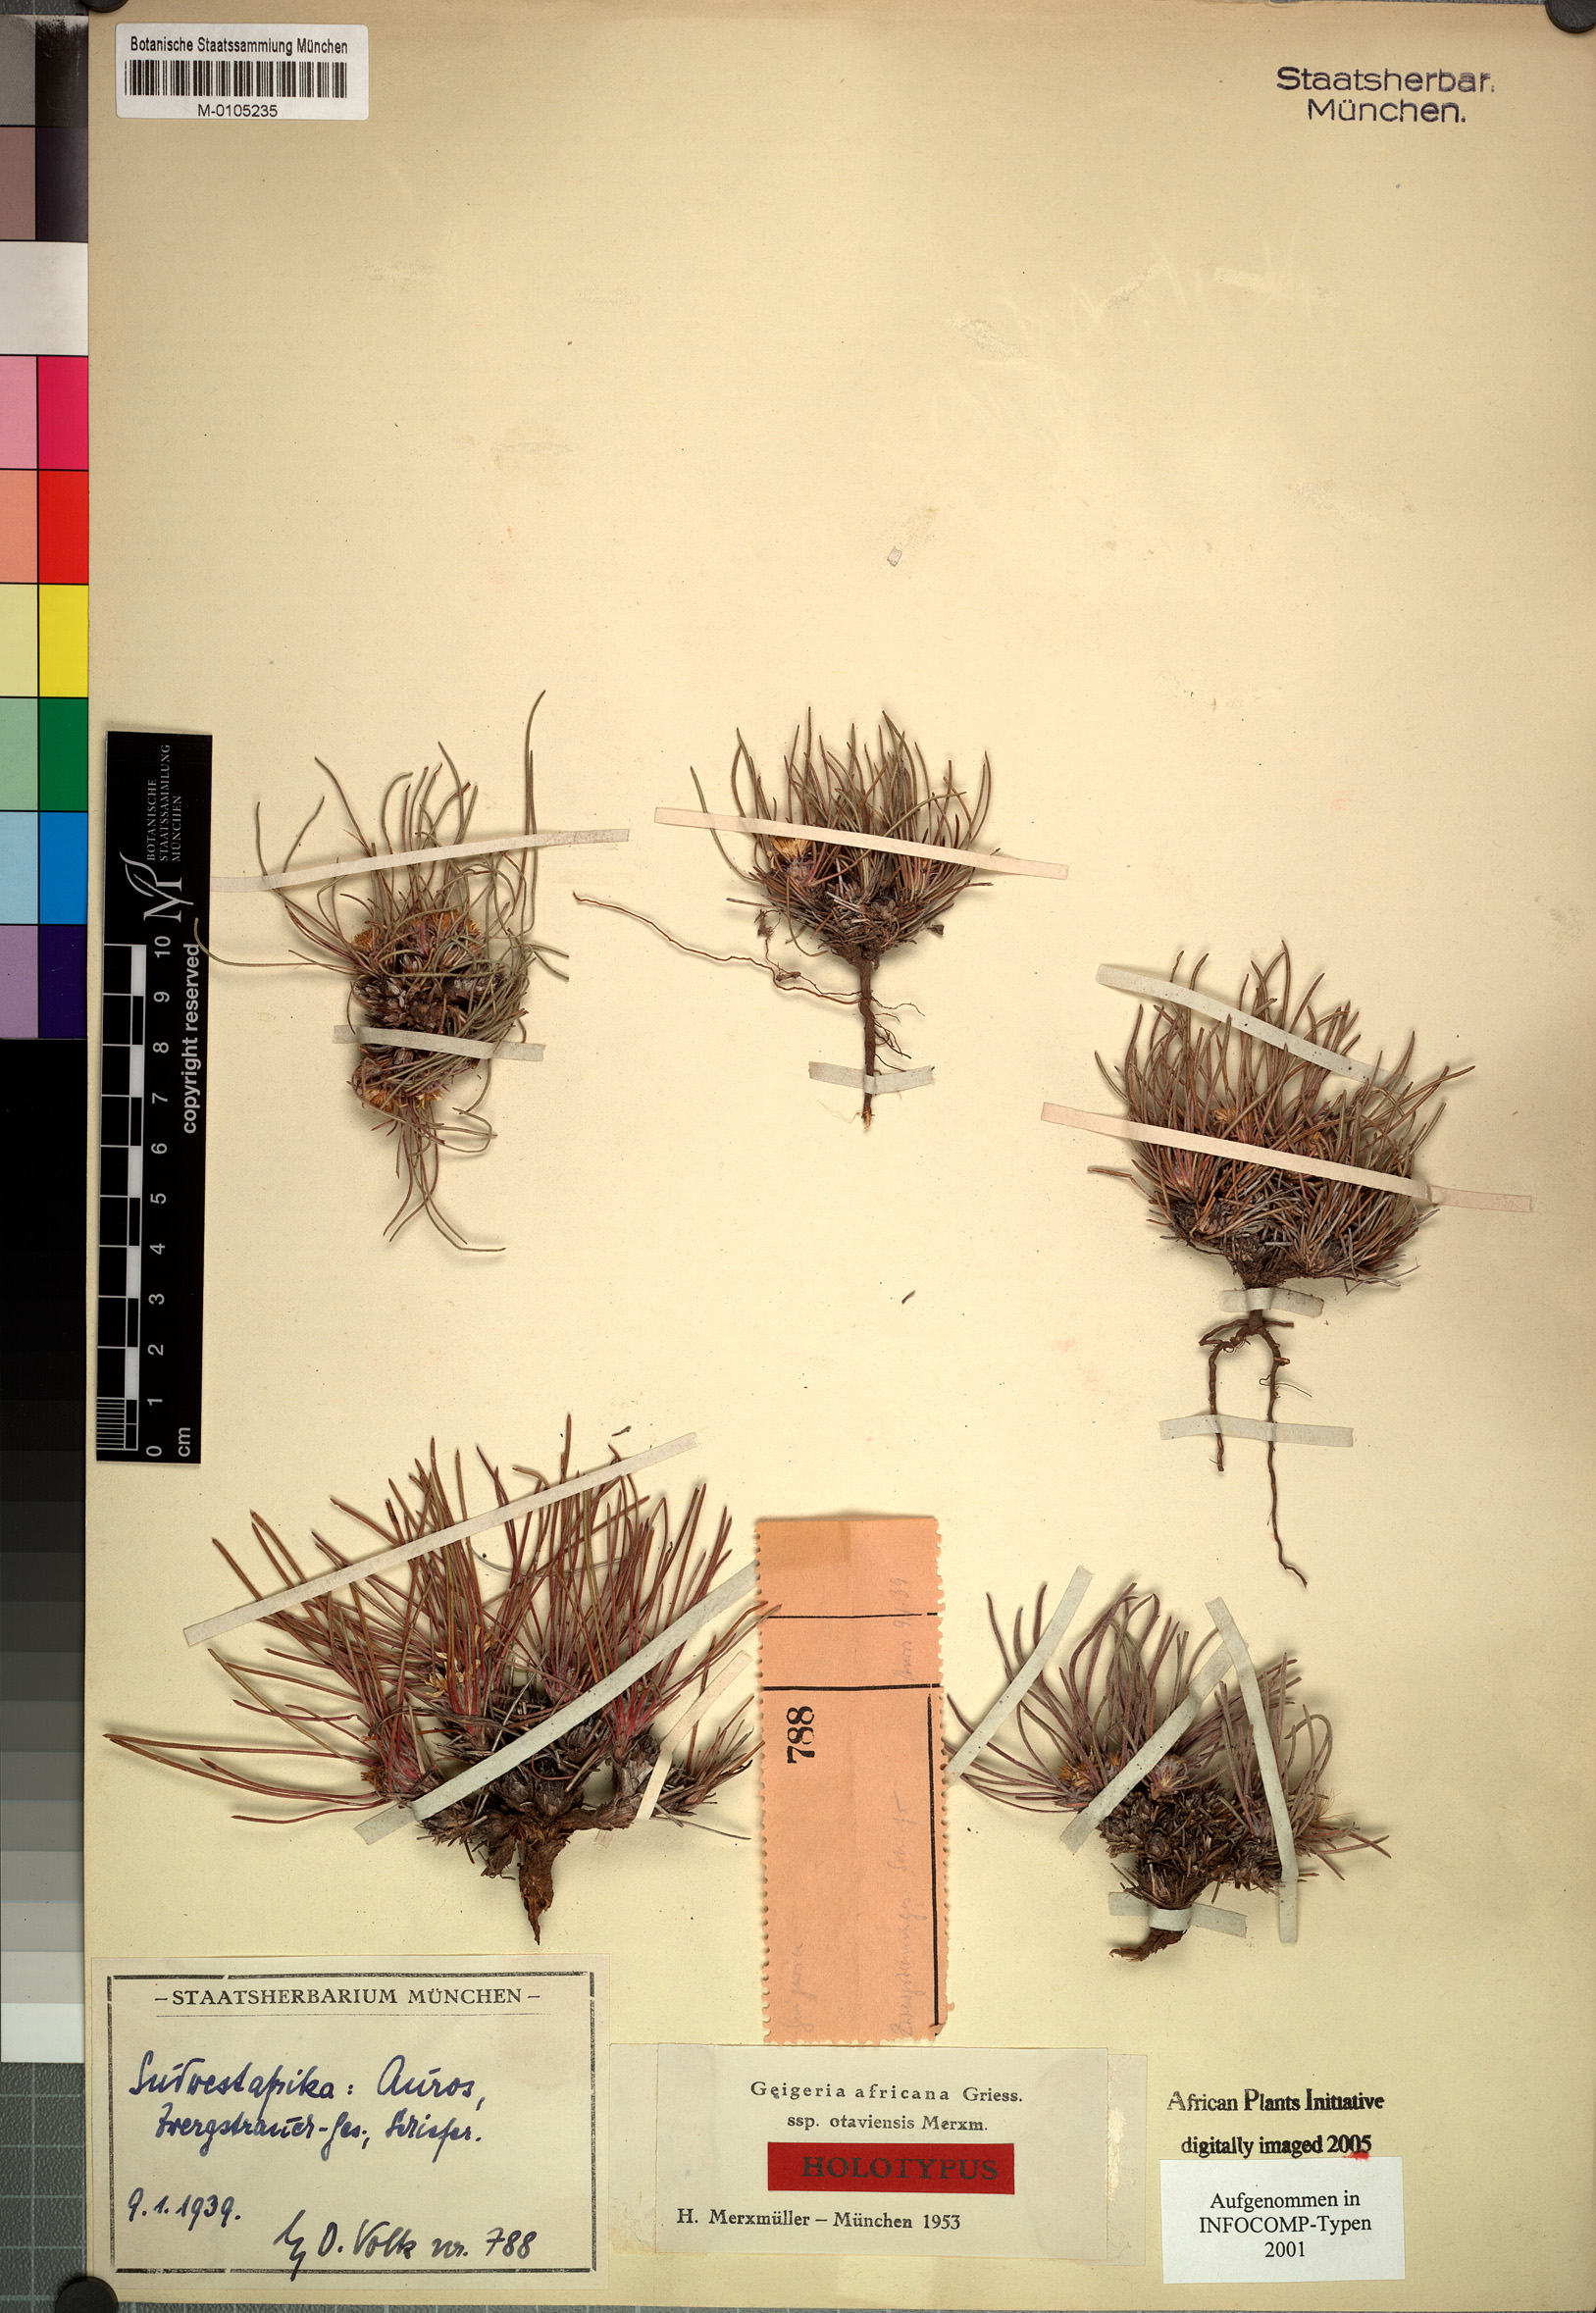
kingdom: Plantae
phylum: Tracheophyta
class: Magnoliopsida
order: Asterales
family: Asteraceae
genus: Geigeria
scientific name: Geigeria otaviensis
